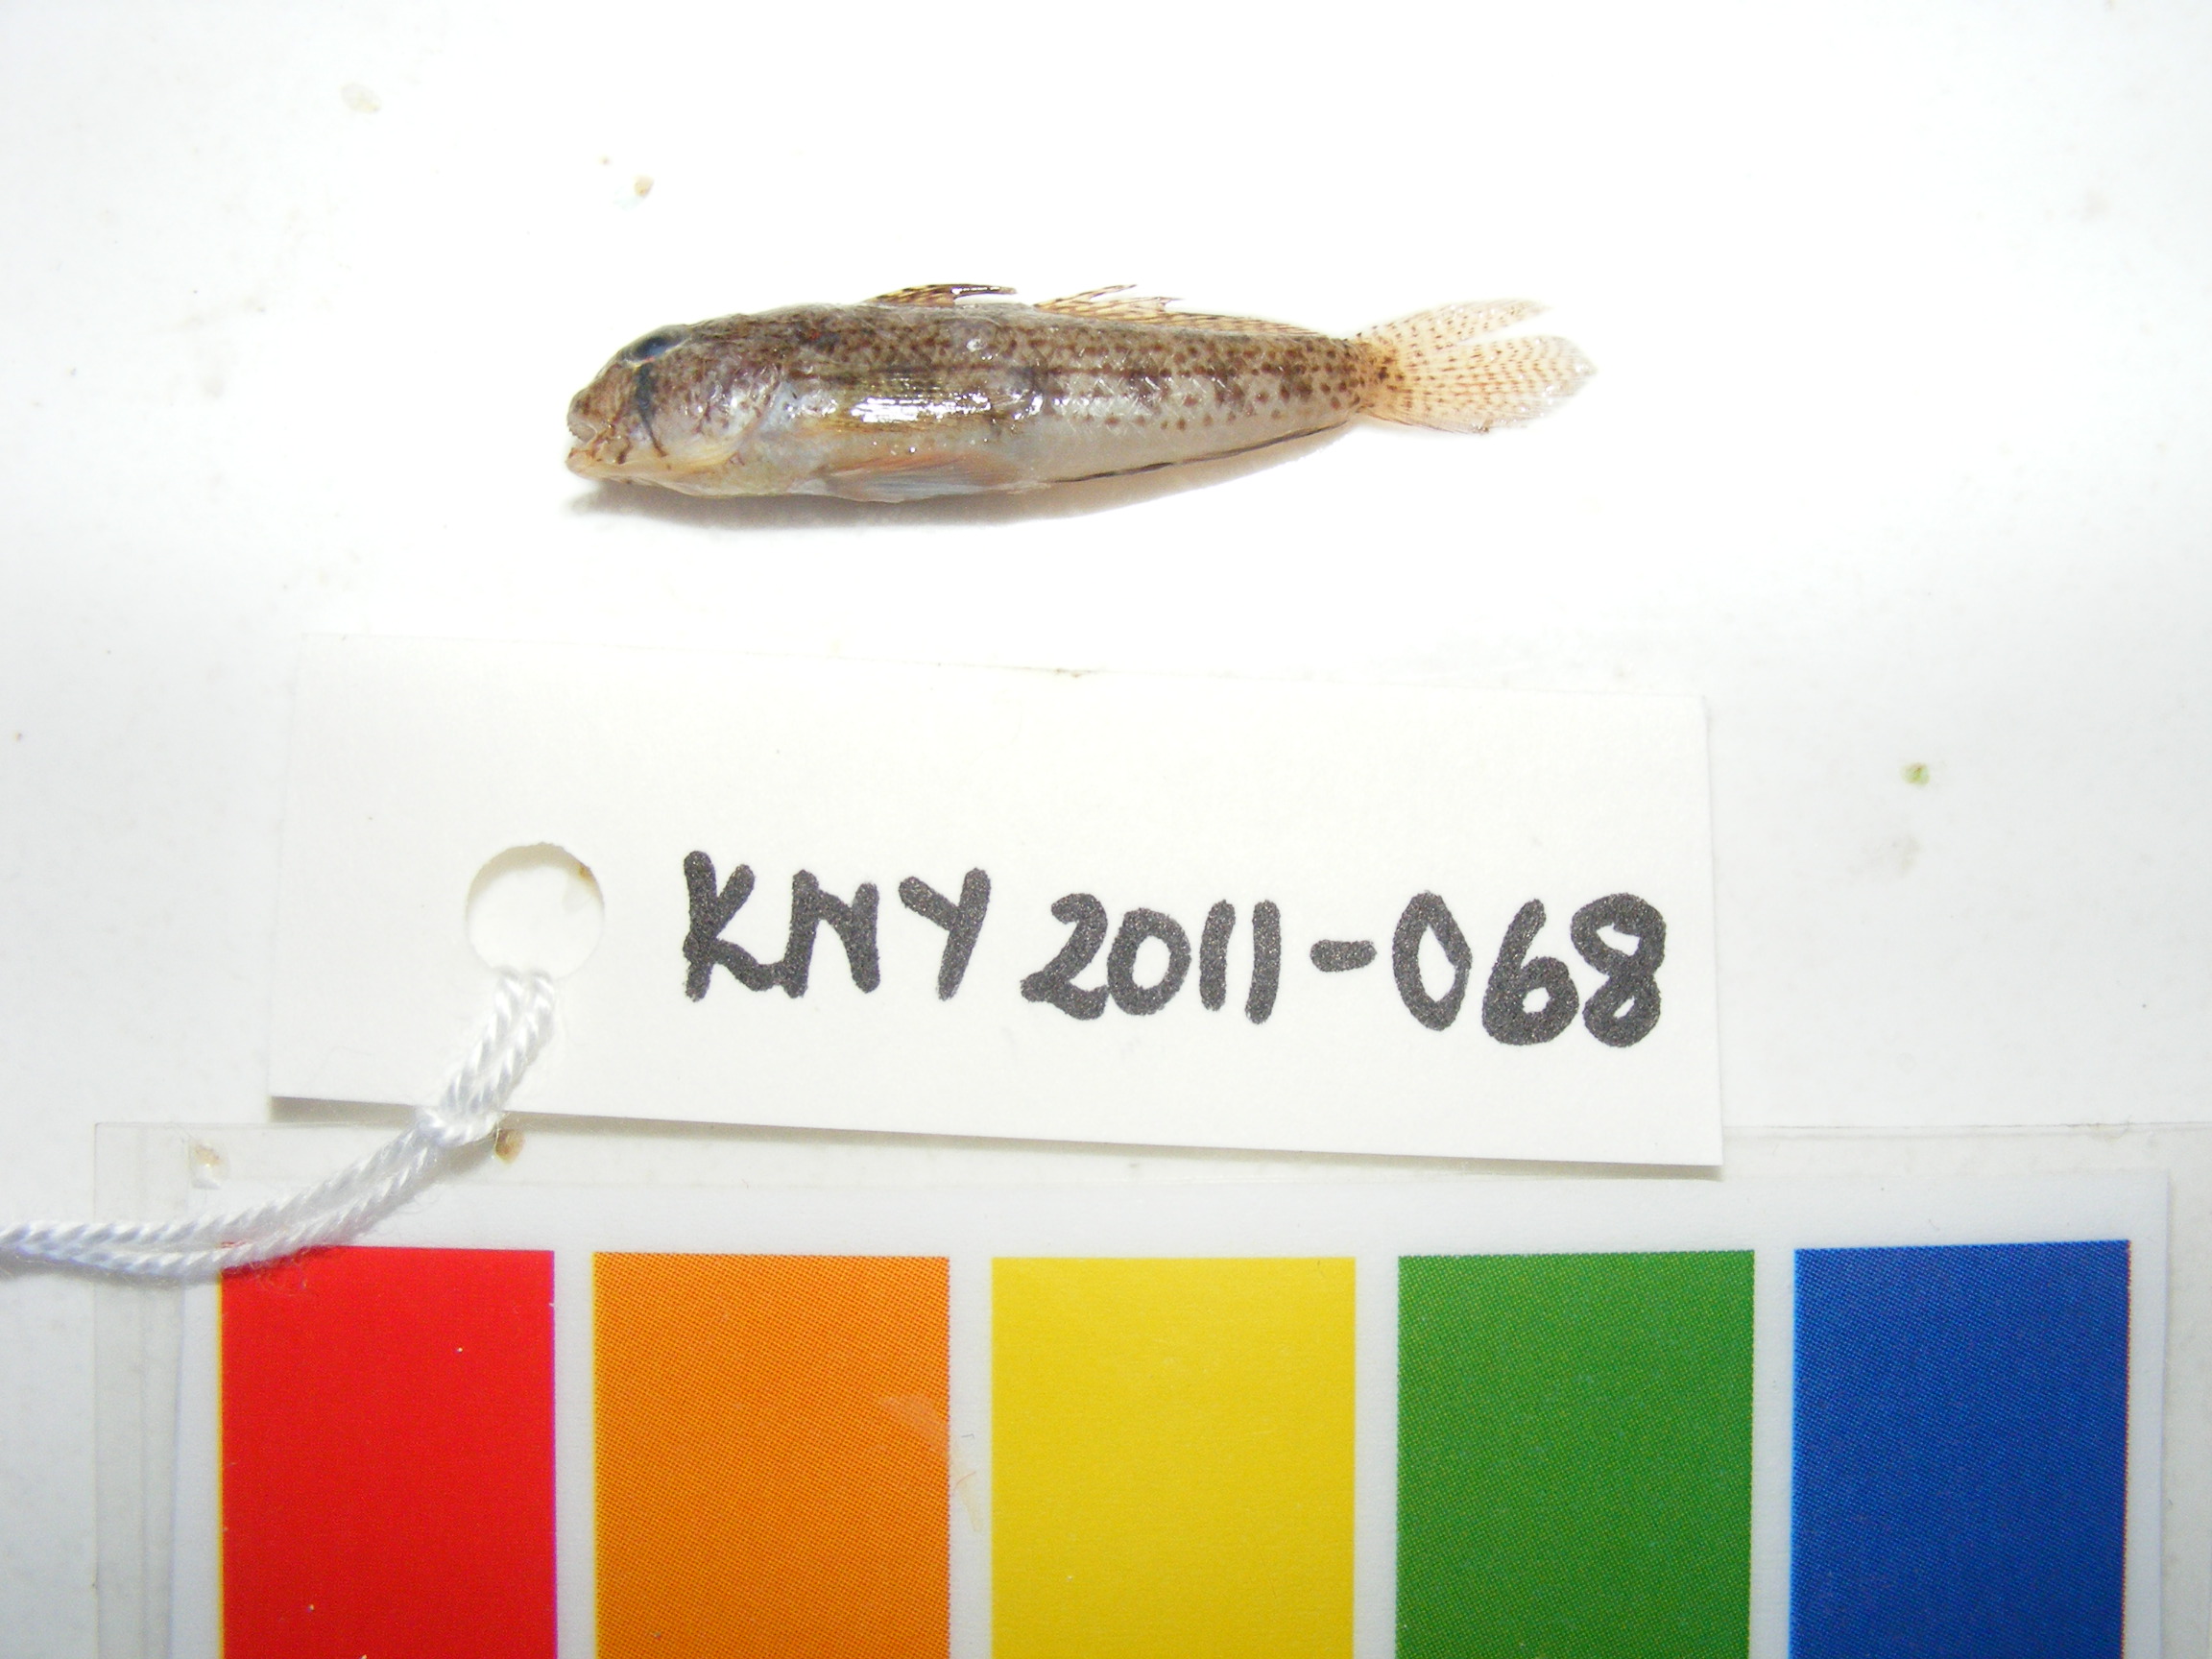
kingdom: Animalia
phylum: Chordata
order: Perciformes
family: Gobiidae
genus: Gnatholepis
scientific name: Gnatholepis cauerensis
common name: Bridled goby
